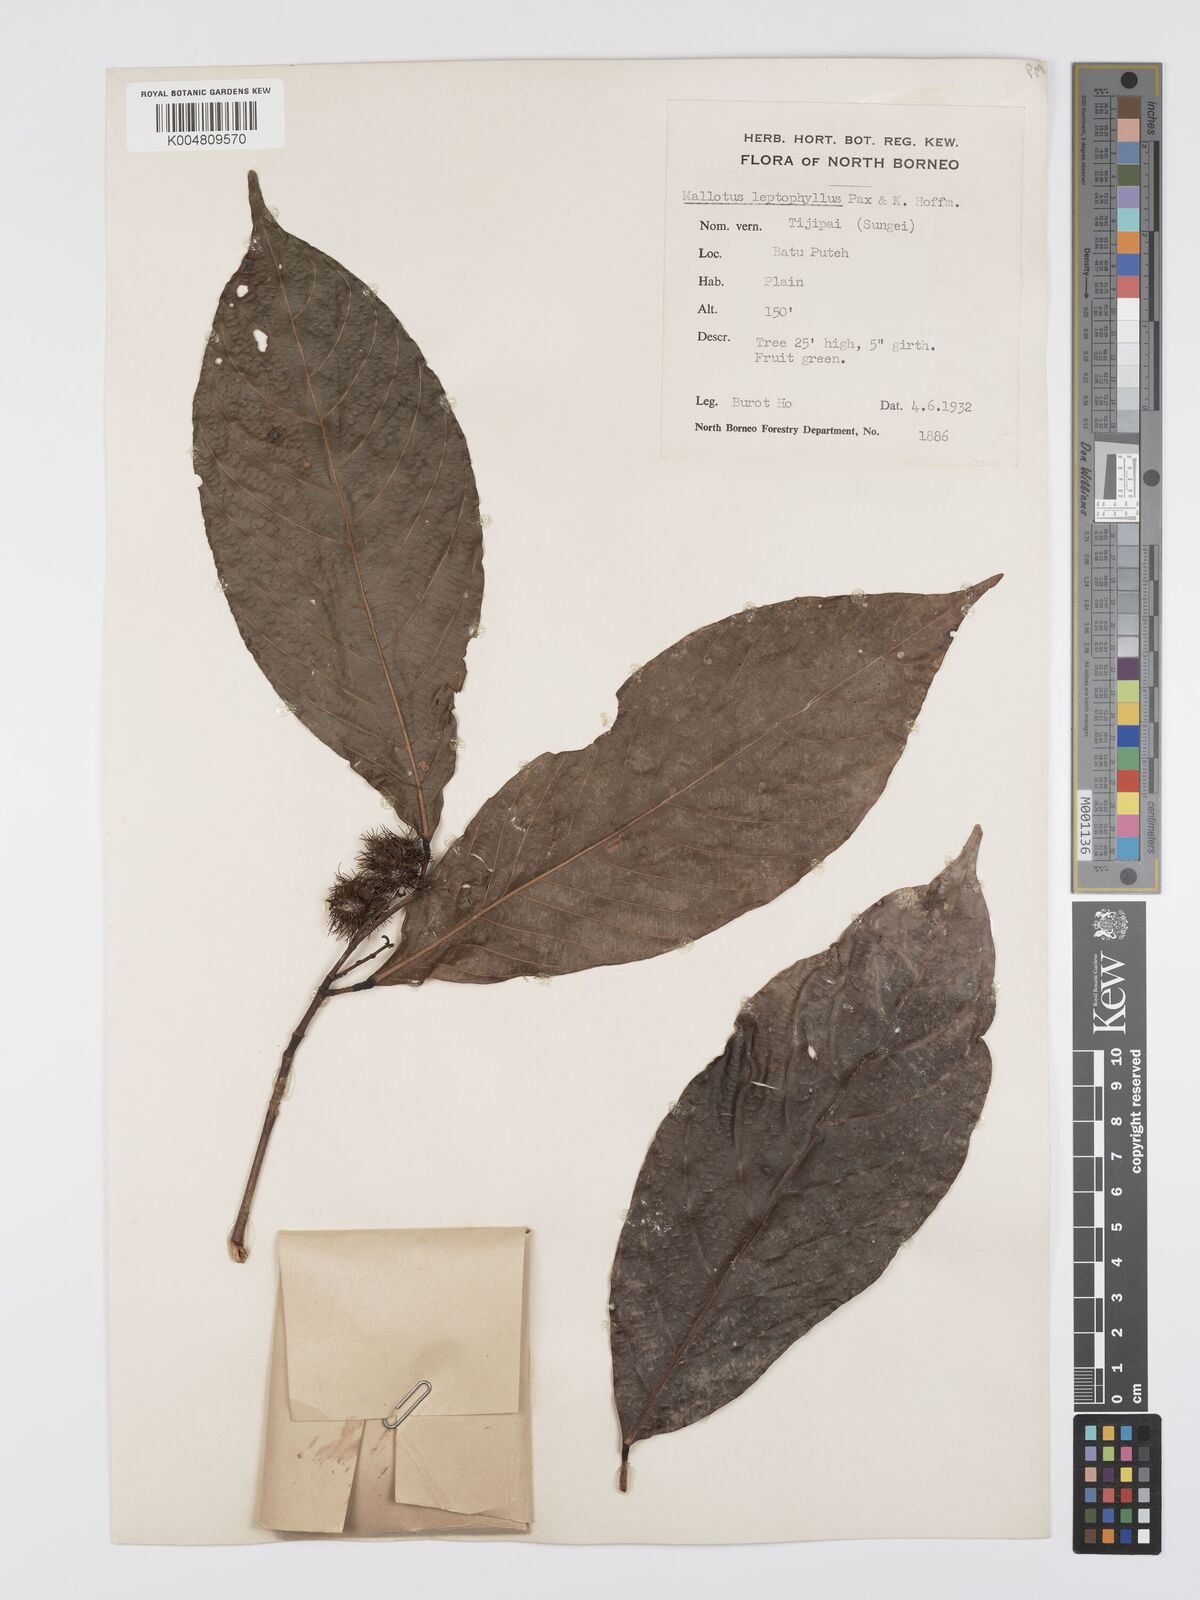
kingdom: Plantae
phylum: Tracheophyta
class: Magnoliopsida
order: Malpighiales
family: Euphorbiaceae
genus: Hancea
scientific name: Hancea penangensis
